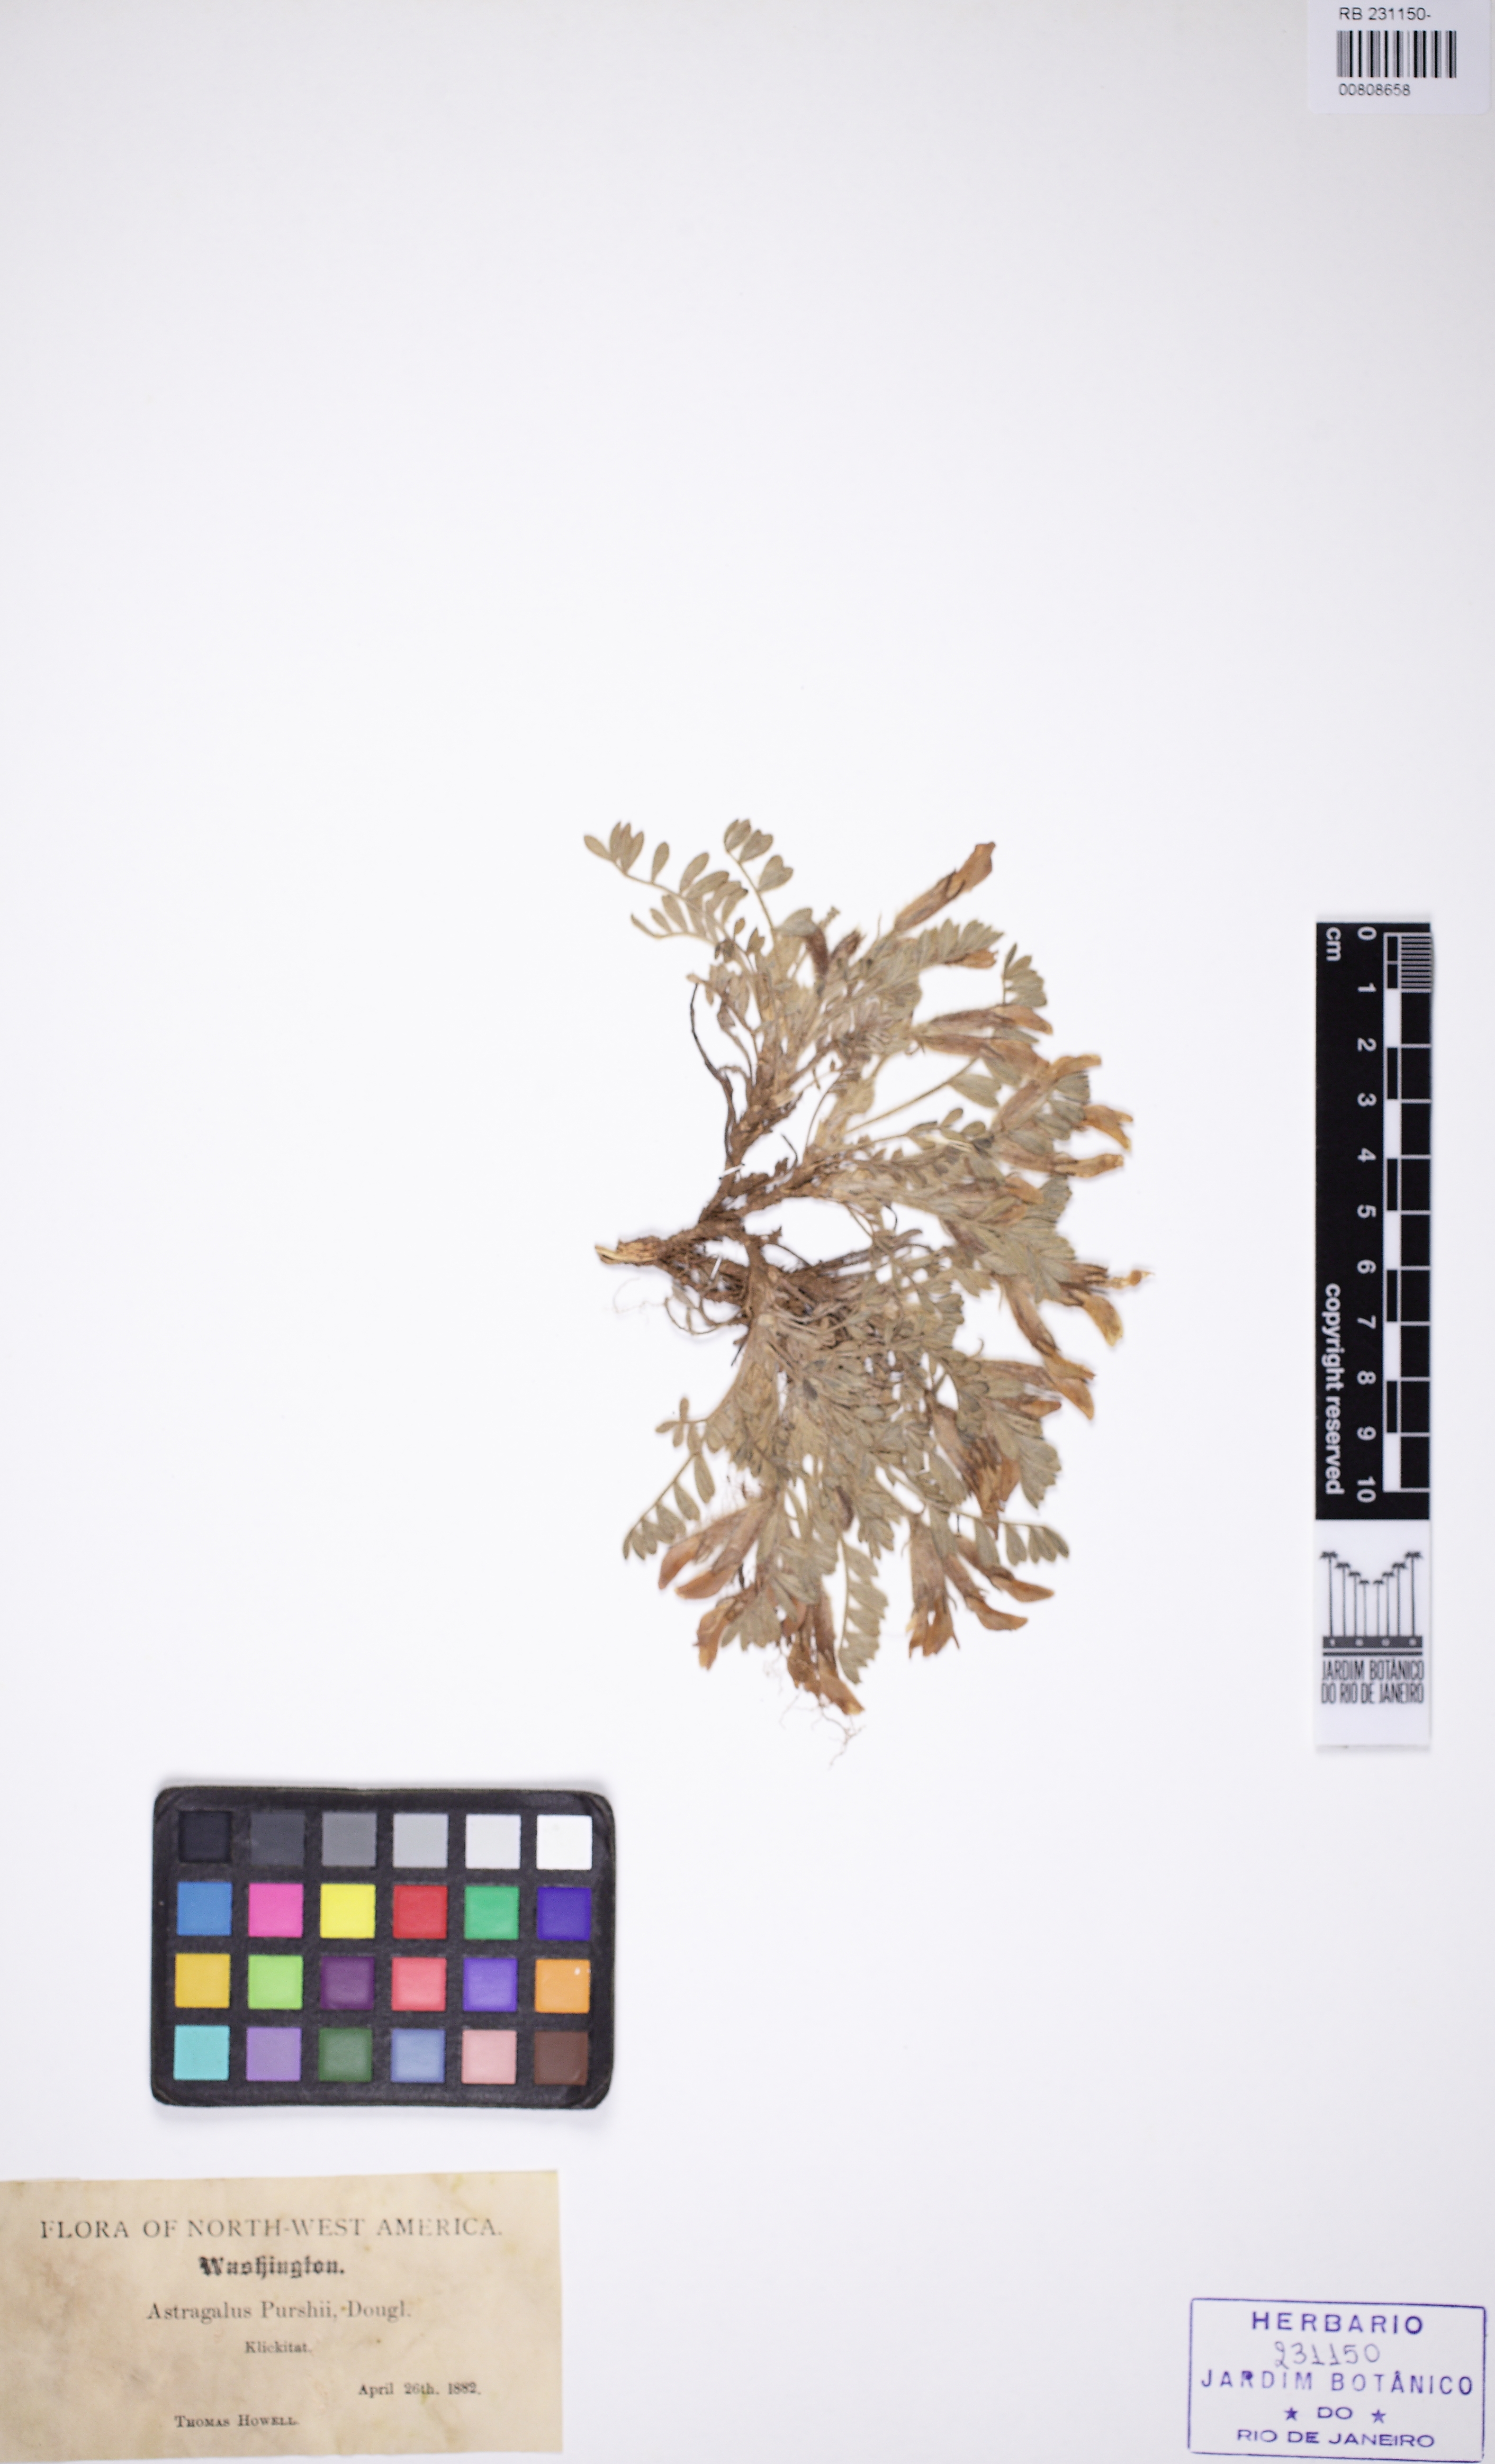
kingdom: Plantae
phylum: Tracheophyta
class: Magnoliopsida
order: Fabales
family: Fabaceae
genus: Astragalus
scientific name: Astragalus leucolobus
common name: Big bear valley woollypod
